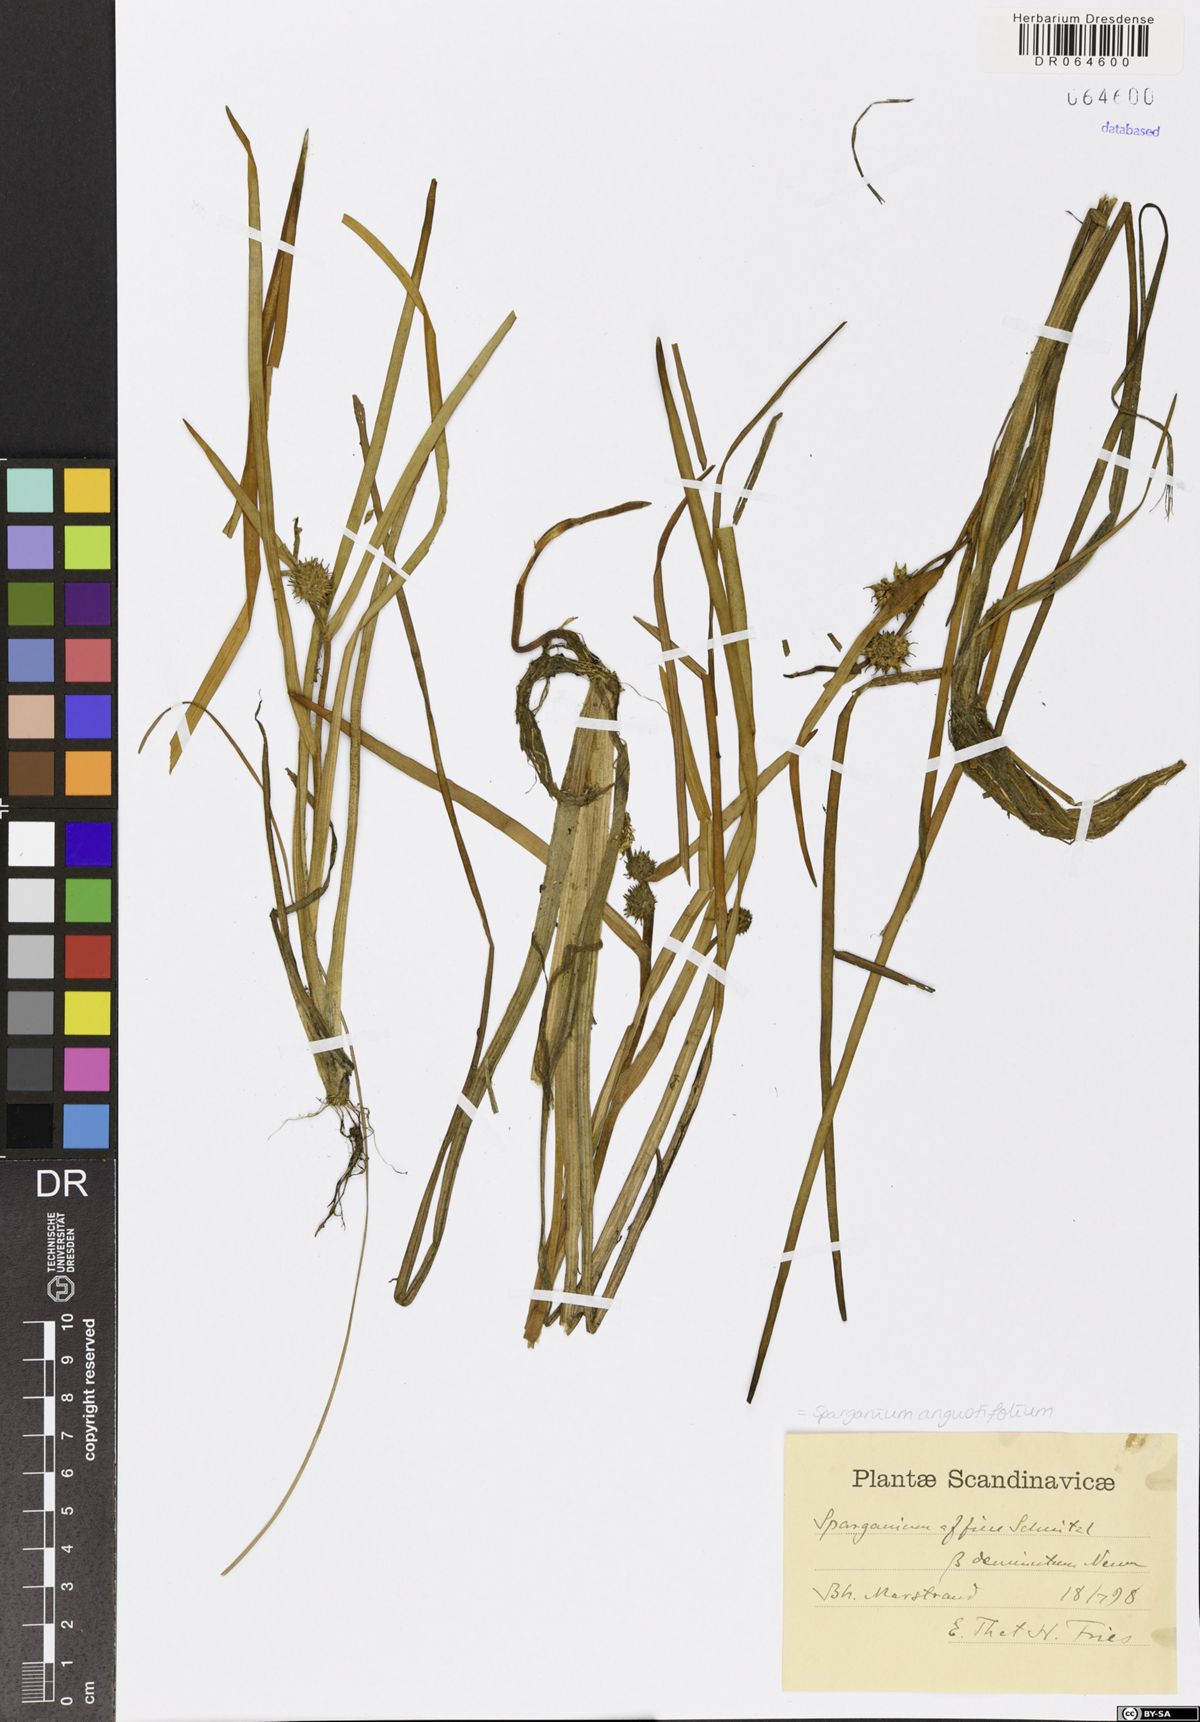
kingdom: Plantae
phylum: Tracheophyta
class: Liliopsida
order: Poales
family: Typhaceae
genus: Sparganium
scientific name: Sparganium angustifolium
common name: Floating bur-reed
